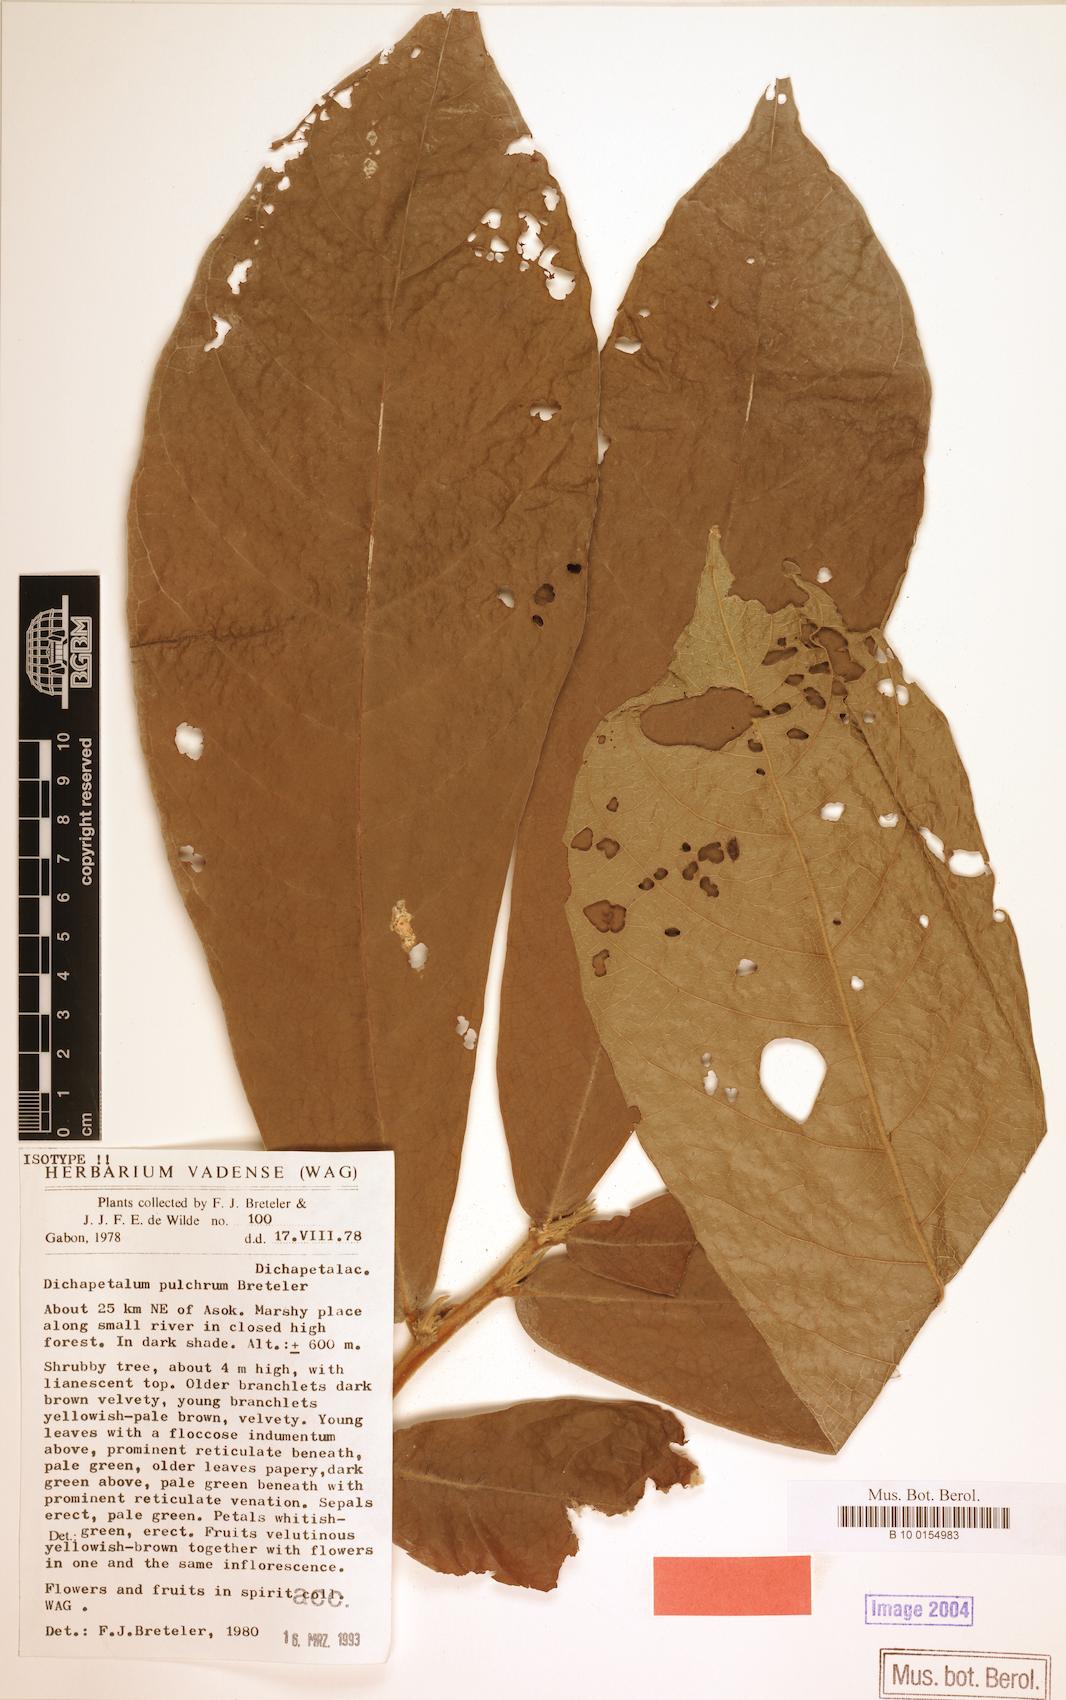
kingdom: Plantae
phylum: Tracheophyta
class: Magnoliopsida
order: Malpighiales
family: Dichapetalaceae
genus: Dichapetalum
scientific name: Dichapetalum pulchrum
